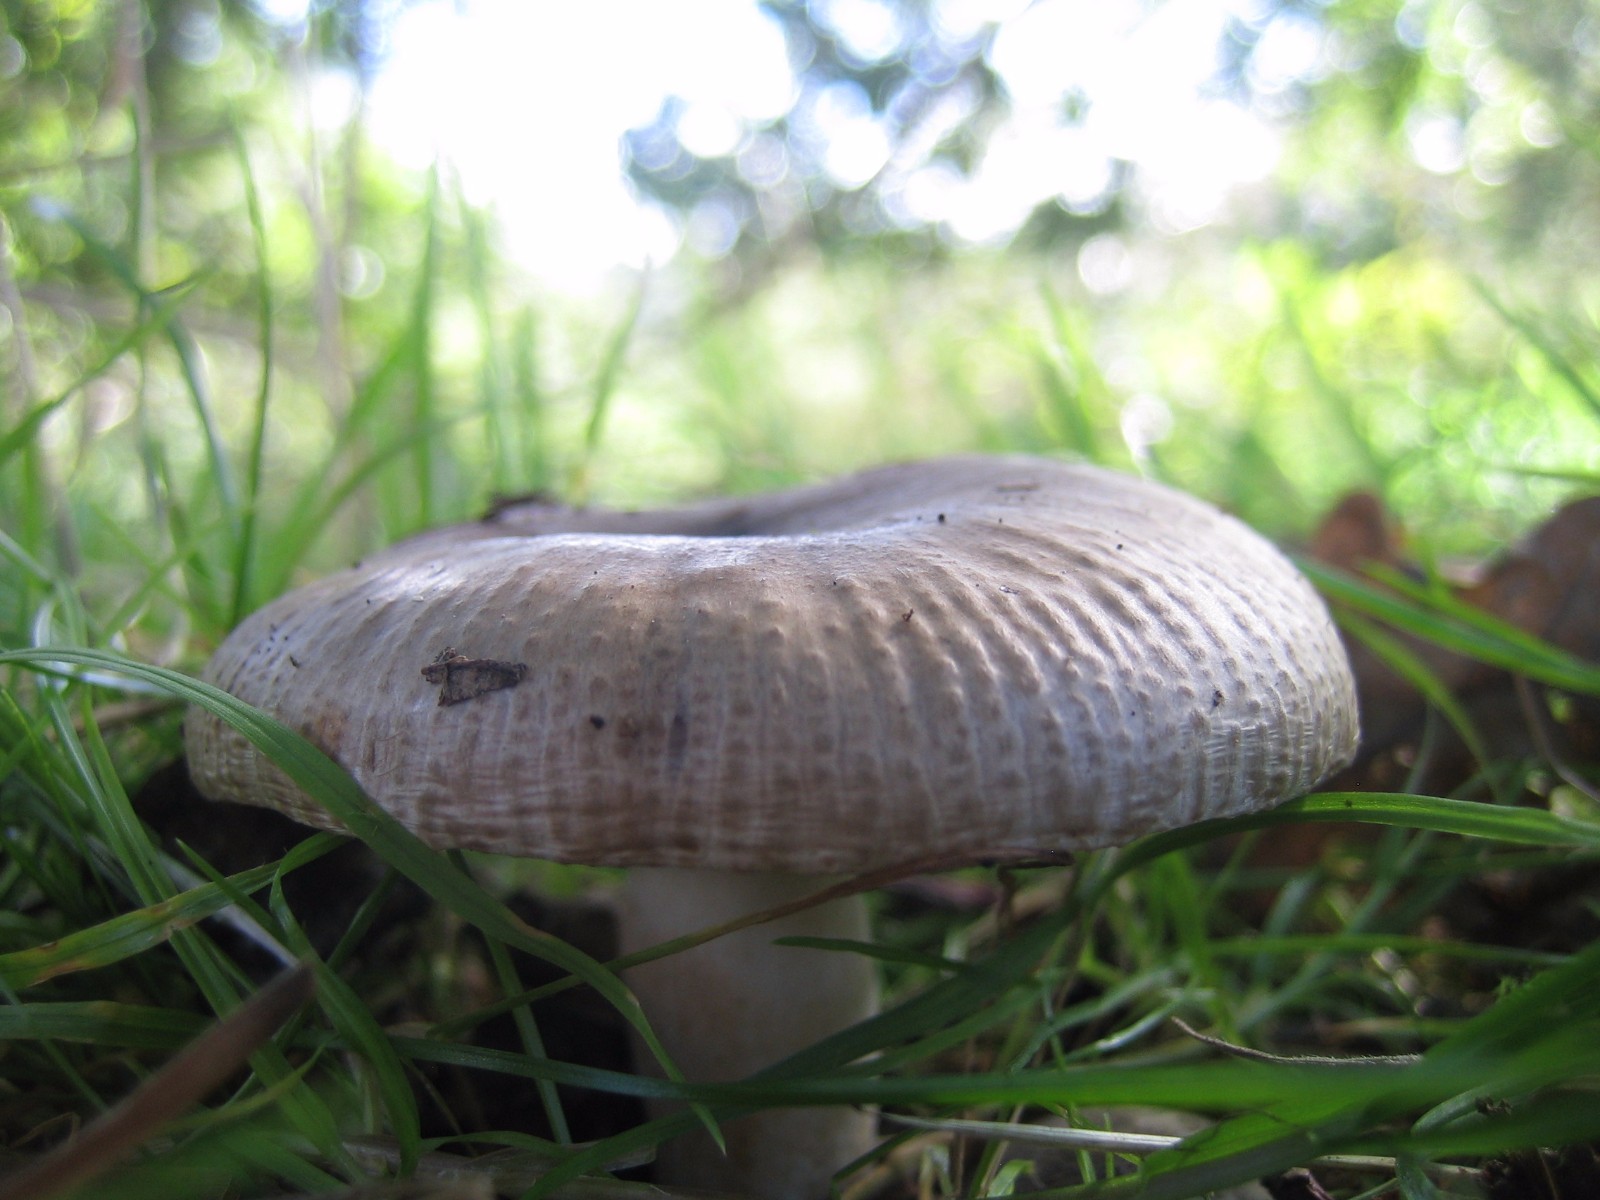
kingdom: Fungi
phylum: Basidiomycota
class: Agaricomycetes
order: Russulales
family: Russulaceae
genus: Russula
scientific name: Russula sororia
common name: brun kam-skørhat
